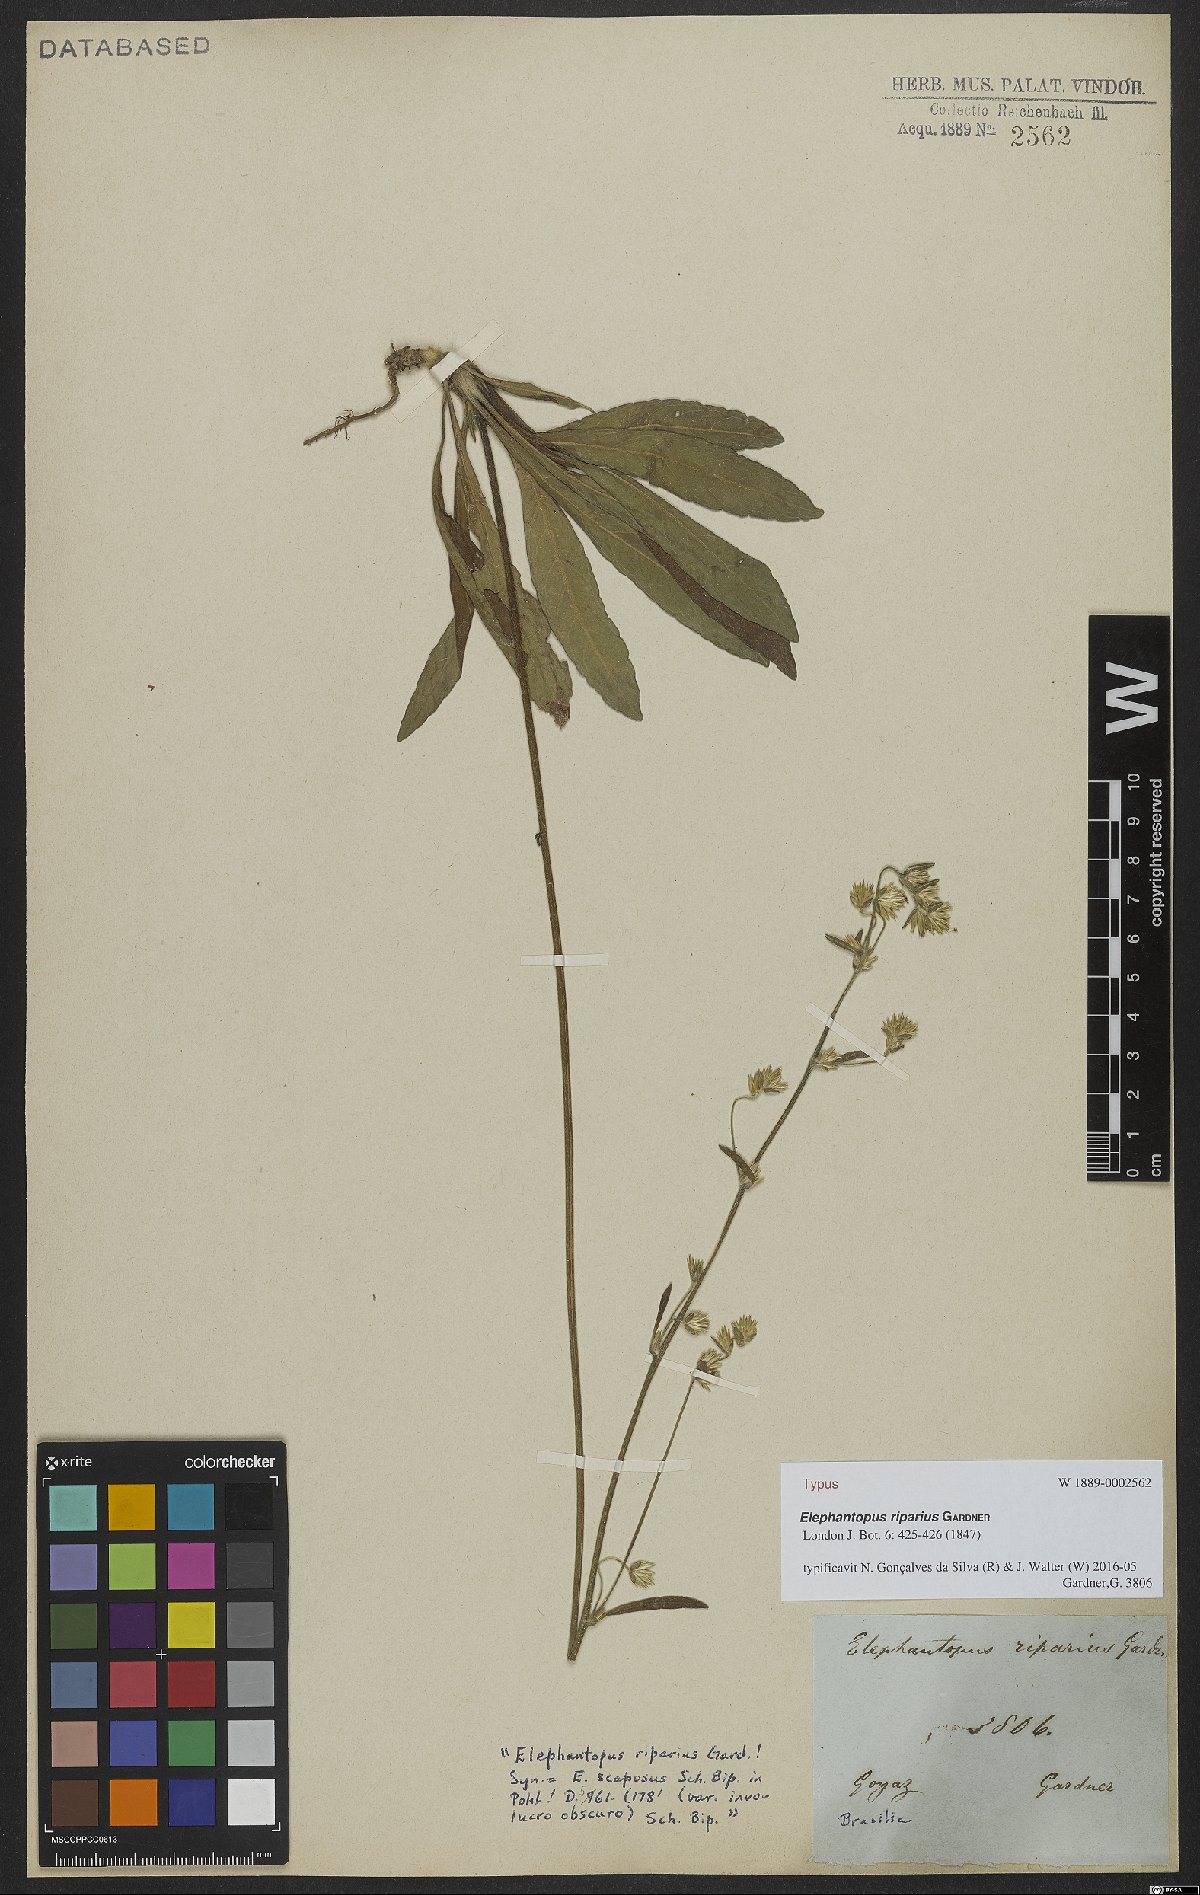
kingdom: Plantae
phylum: Tracheophyta
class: Magnoliopsida
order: Asterales
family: Asteraceae
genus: Elephantopus
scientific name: Elephantopus riparius
